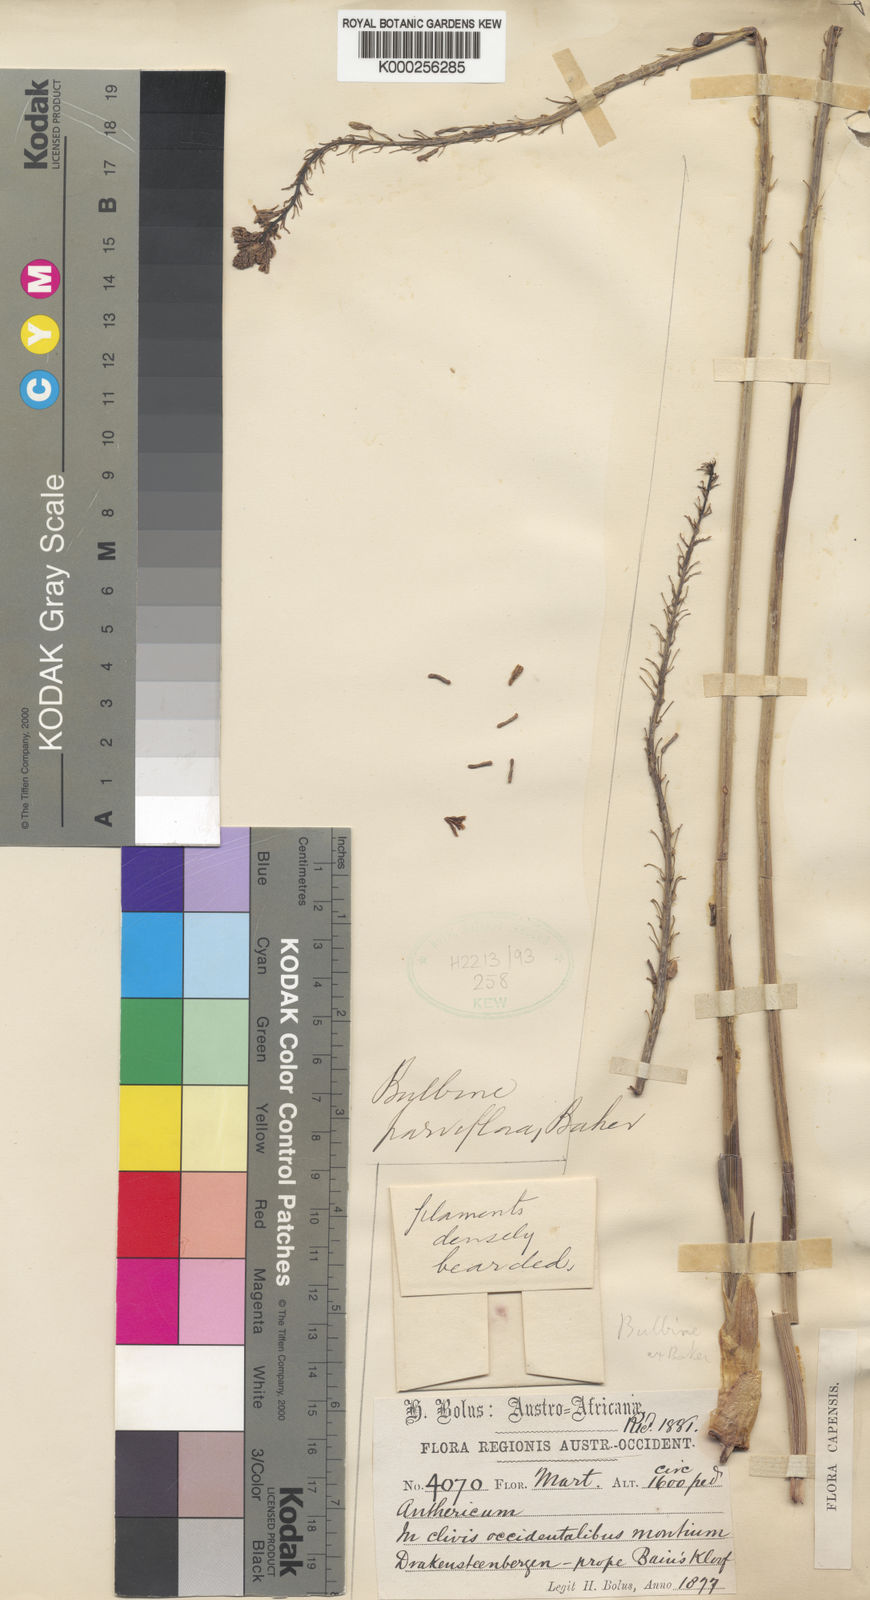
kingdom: Plantae
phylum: Tracheophyta
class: Liliopsida
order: Asparagales
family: Asphodelaceae
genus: Bulbine
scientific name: Bulbine cepacea
